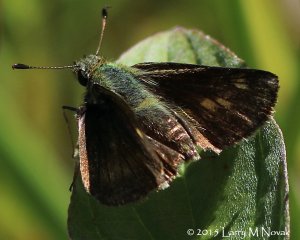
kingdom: Animalia
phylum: Arthropoda
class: Insecta
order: Lepidoptera
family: Hesperiidae
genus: Polites
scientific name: Polites themistocles
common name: Tawny-edged Skipper
